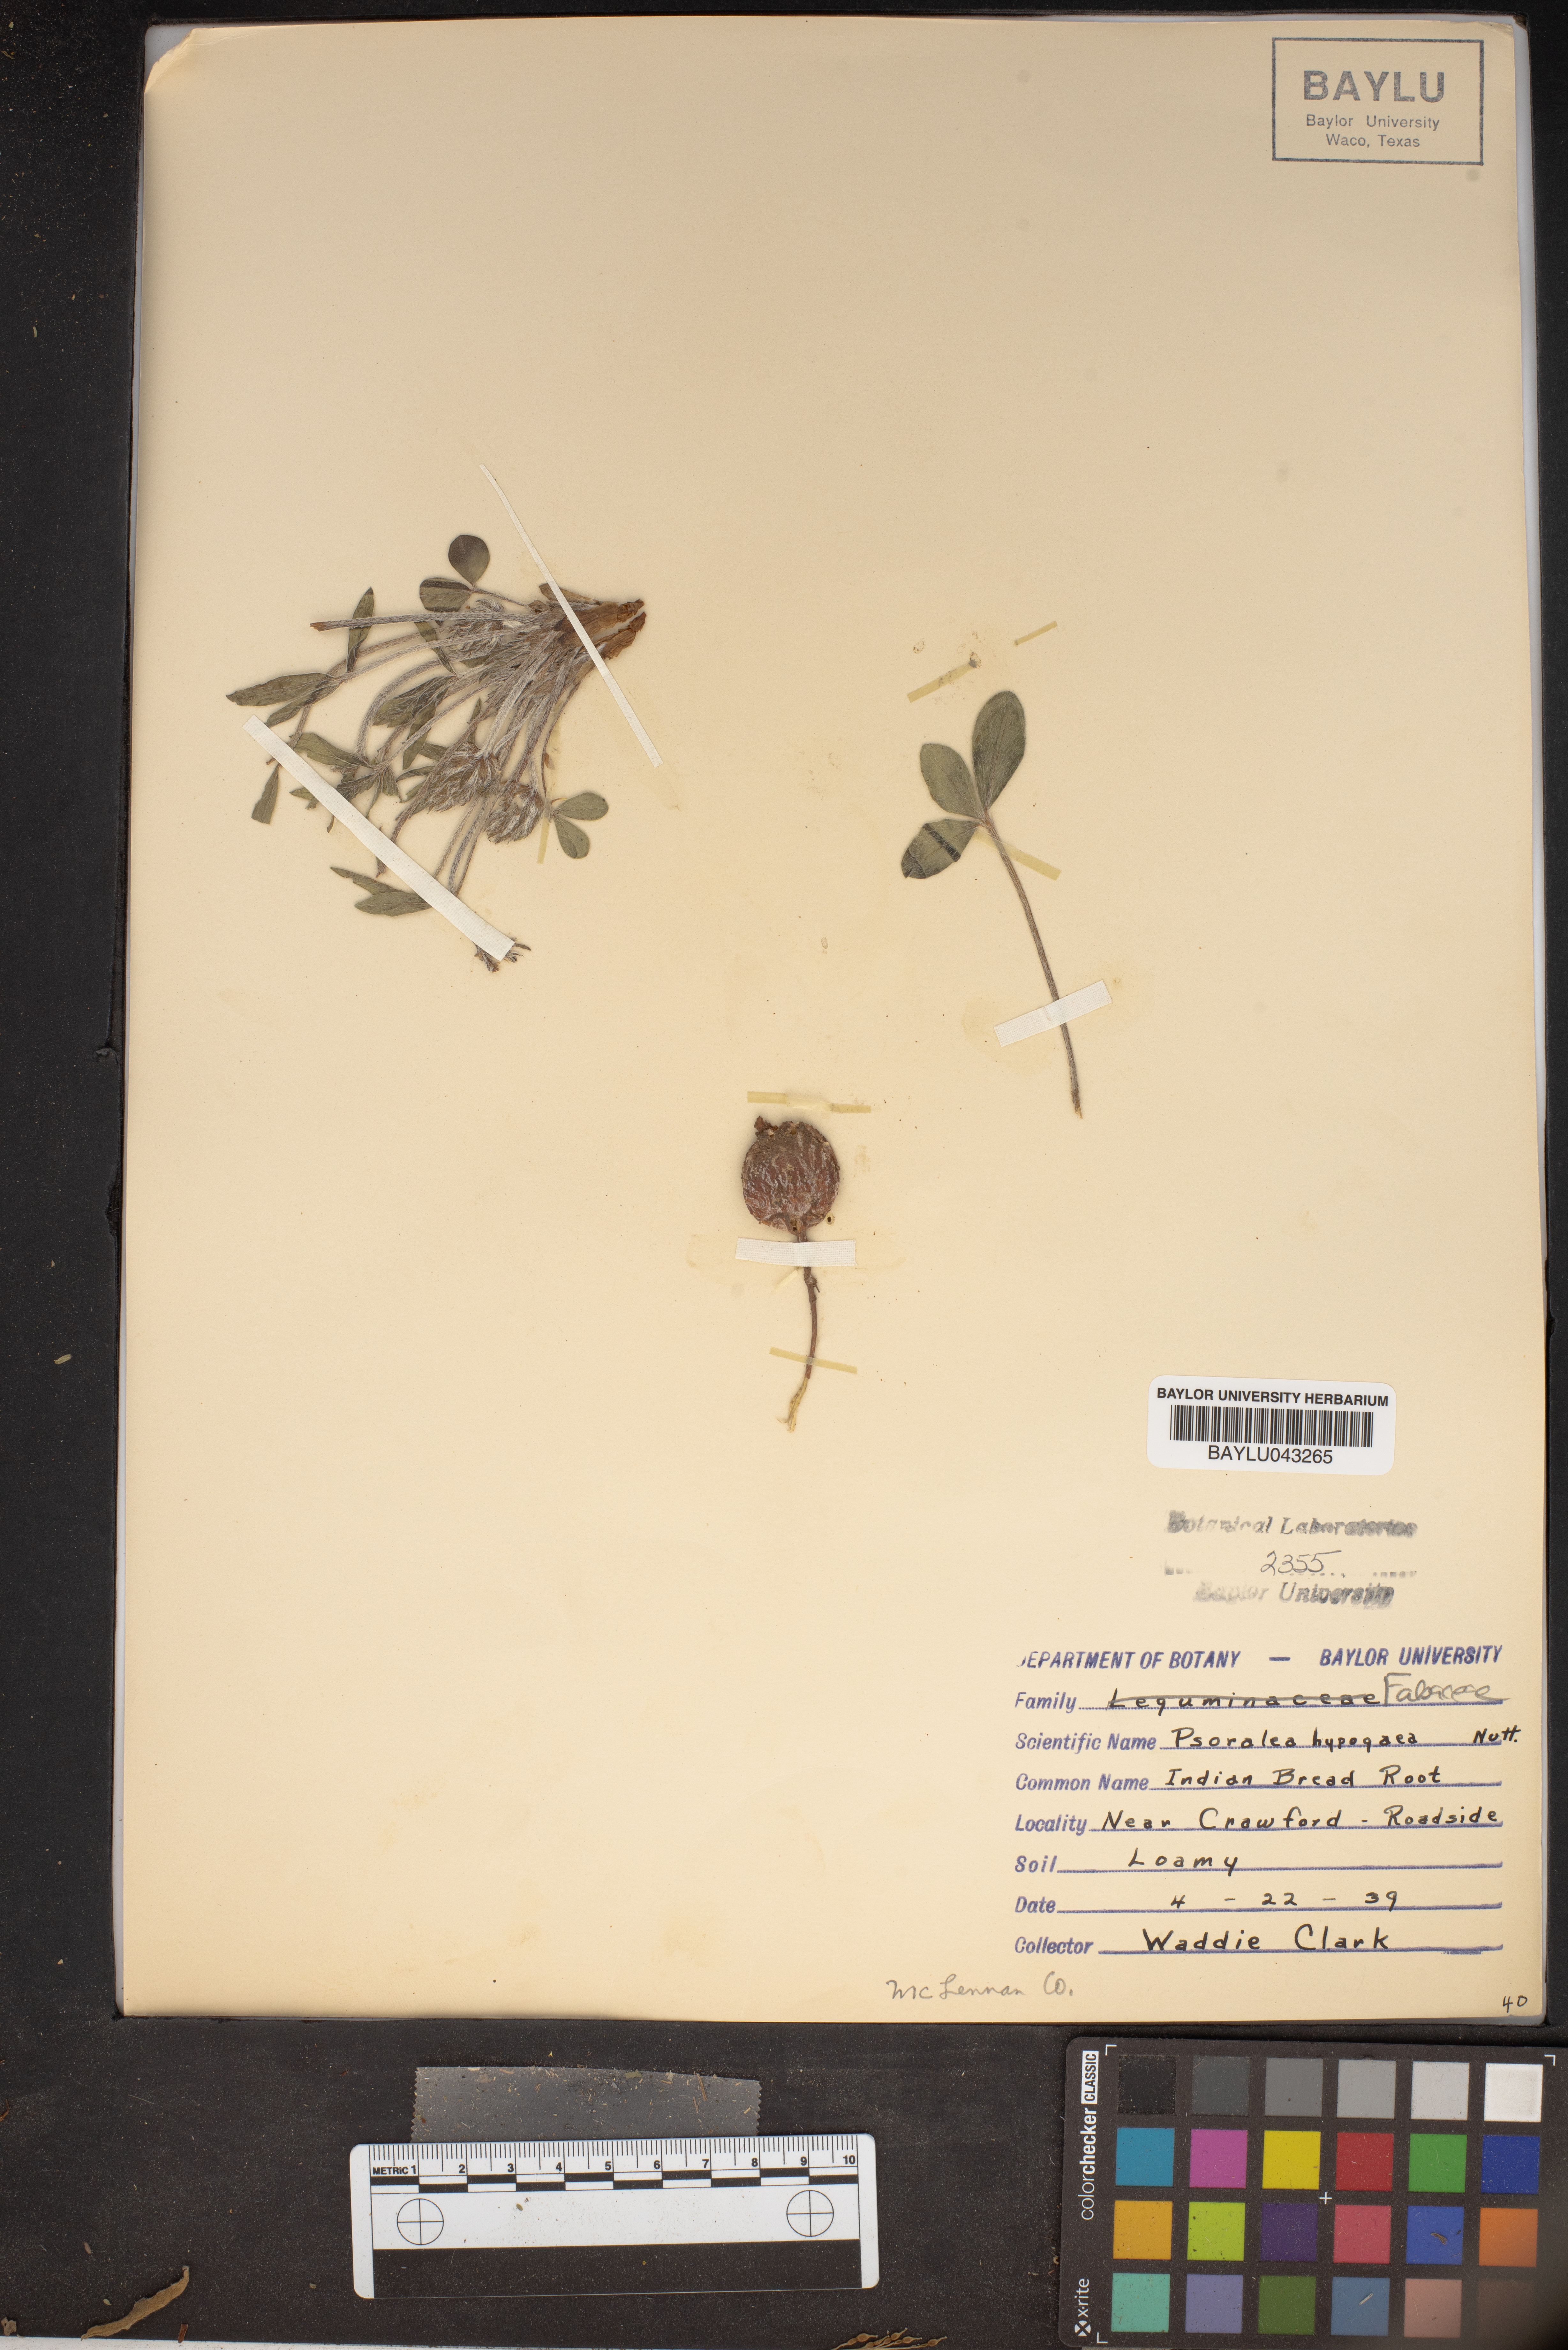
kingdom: Plantae
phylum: Tracheophyta
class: Magnoliopsida
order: Fabales
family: Fabaceae
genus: Pediomelum
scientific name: Pediomelum hypogaeum
